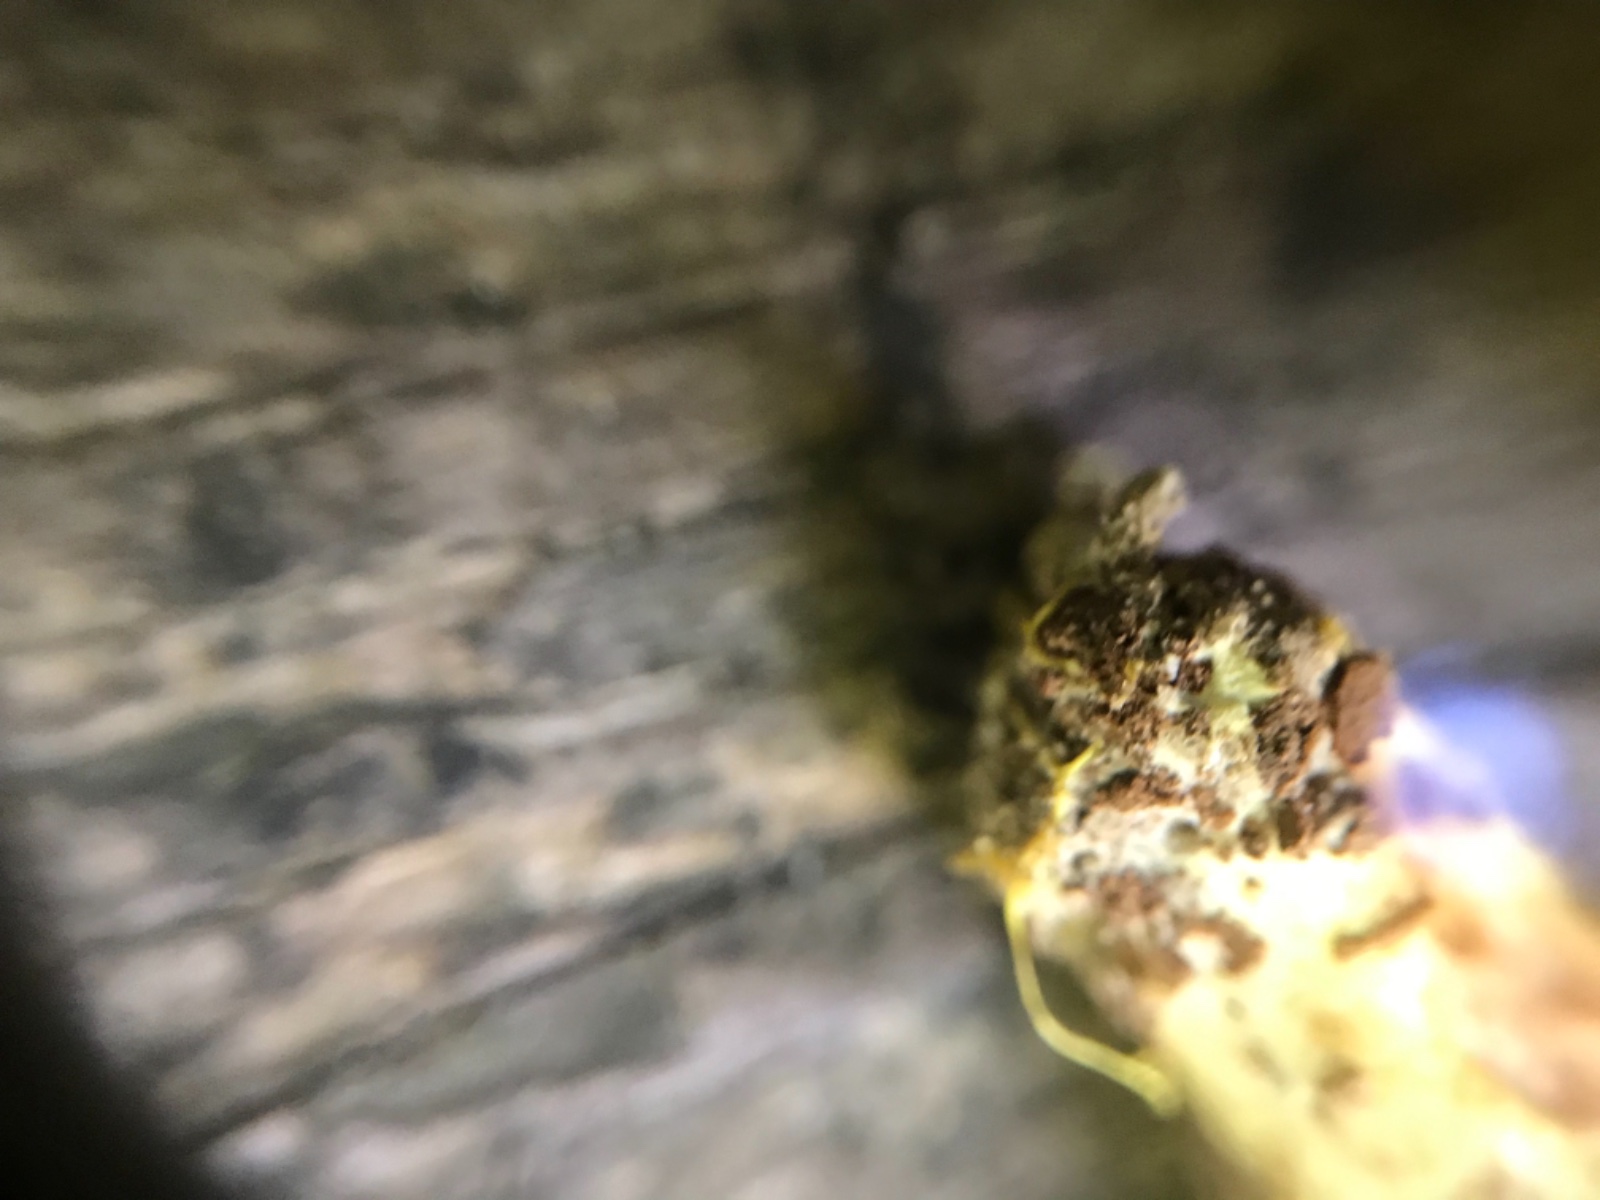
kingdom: Fungi
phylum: Basidiomycota
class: Agaricomycetes
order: Boletales
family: Boletaceae
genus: Xerocomus
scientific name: Xerocomus ferrugineus
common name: vaskeskinds-rørhat
